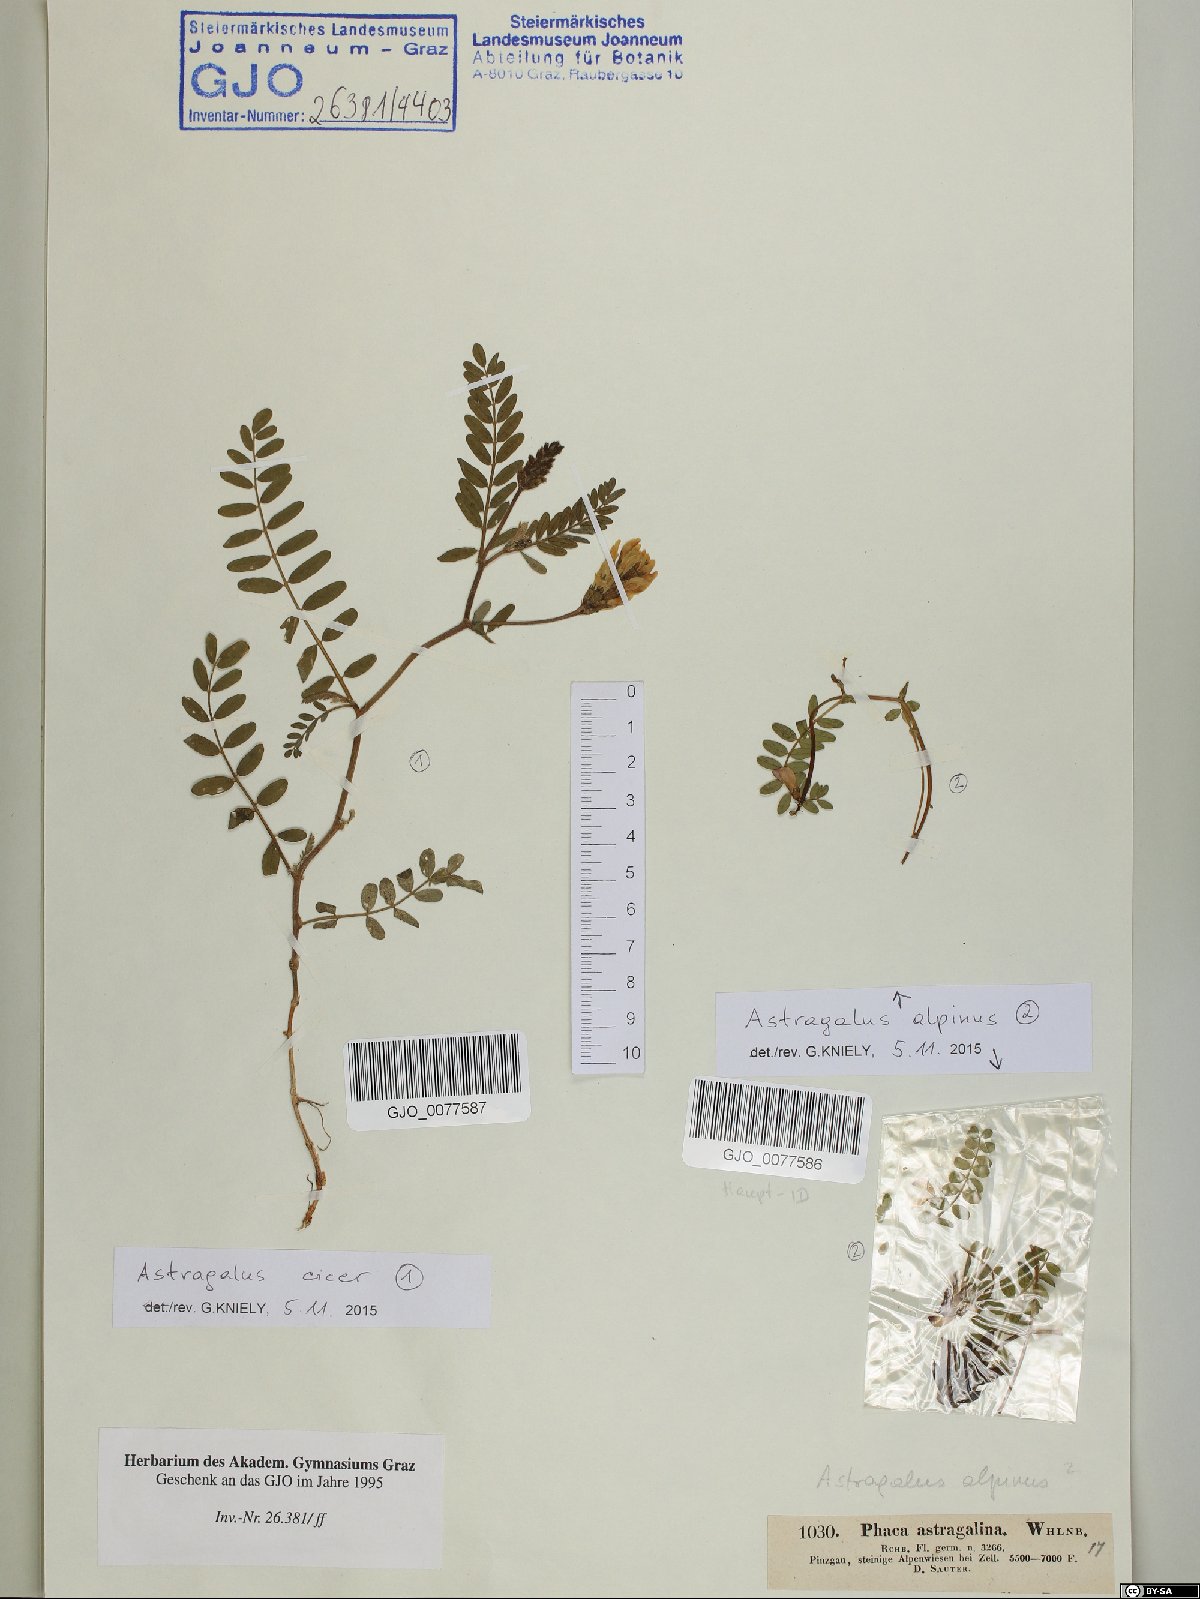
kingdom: Plantae
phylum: Tracheophyta
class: Magnoliopsida
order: Fabales
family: Fabaceae
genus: Astragalus
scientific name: Astragalus alpinus
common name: Alpine milk-vetch
